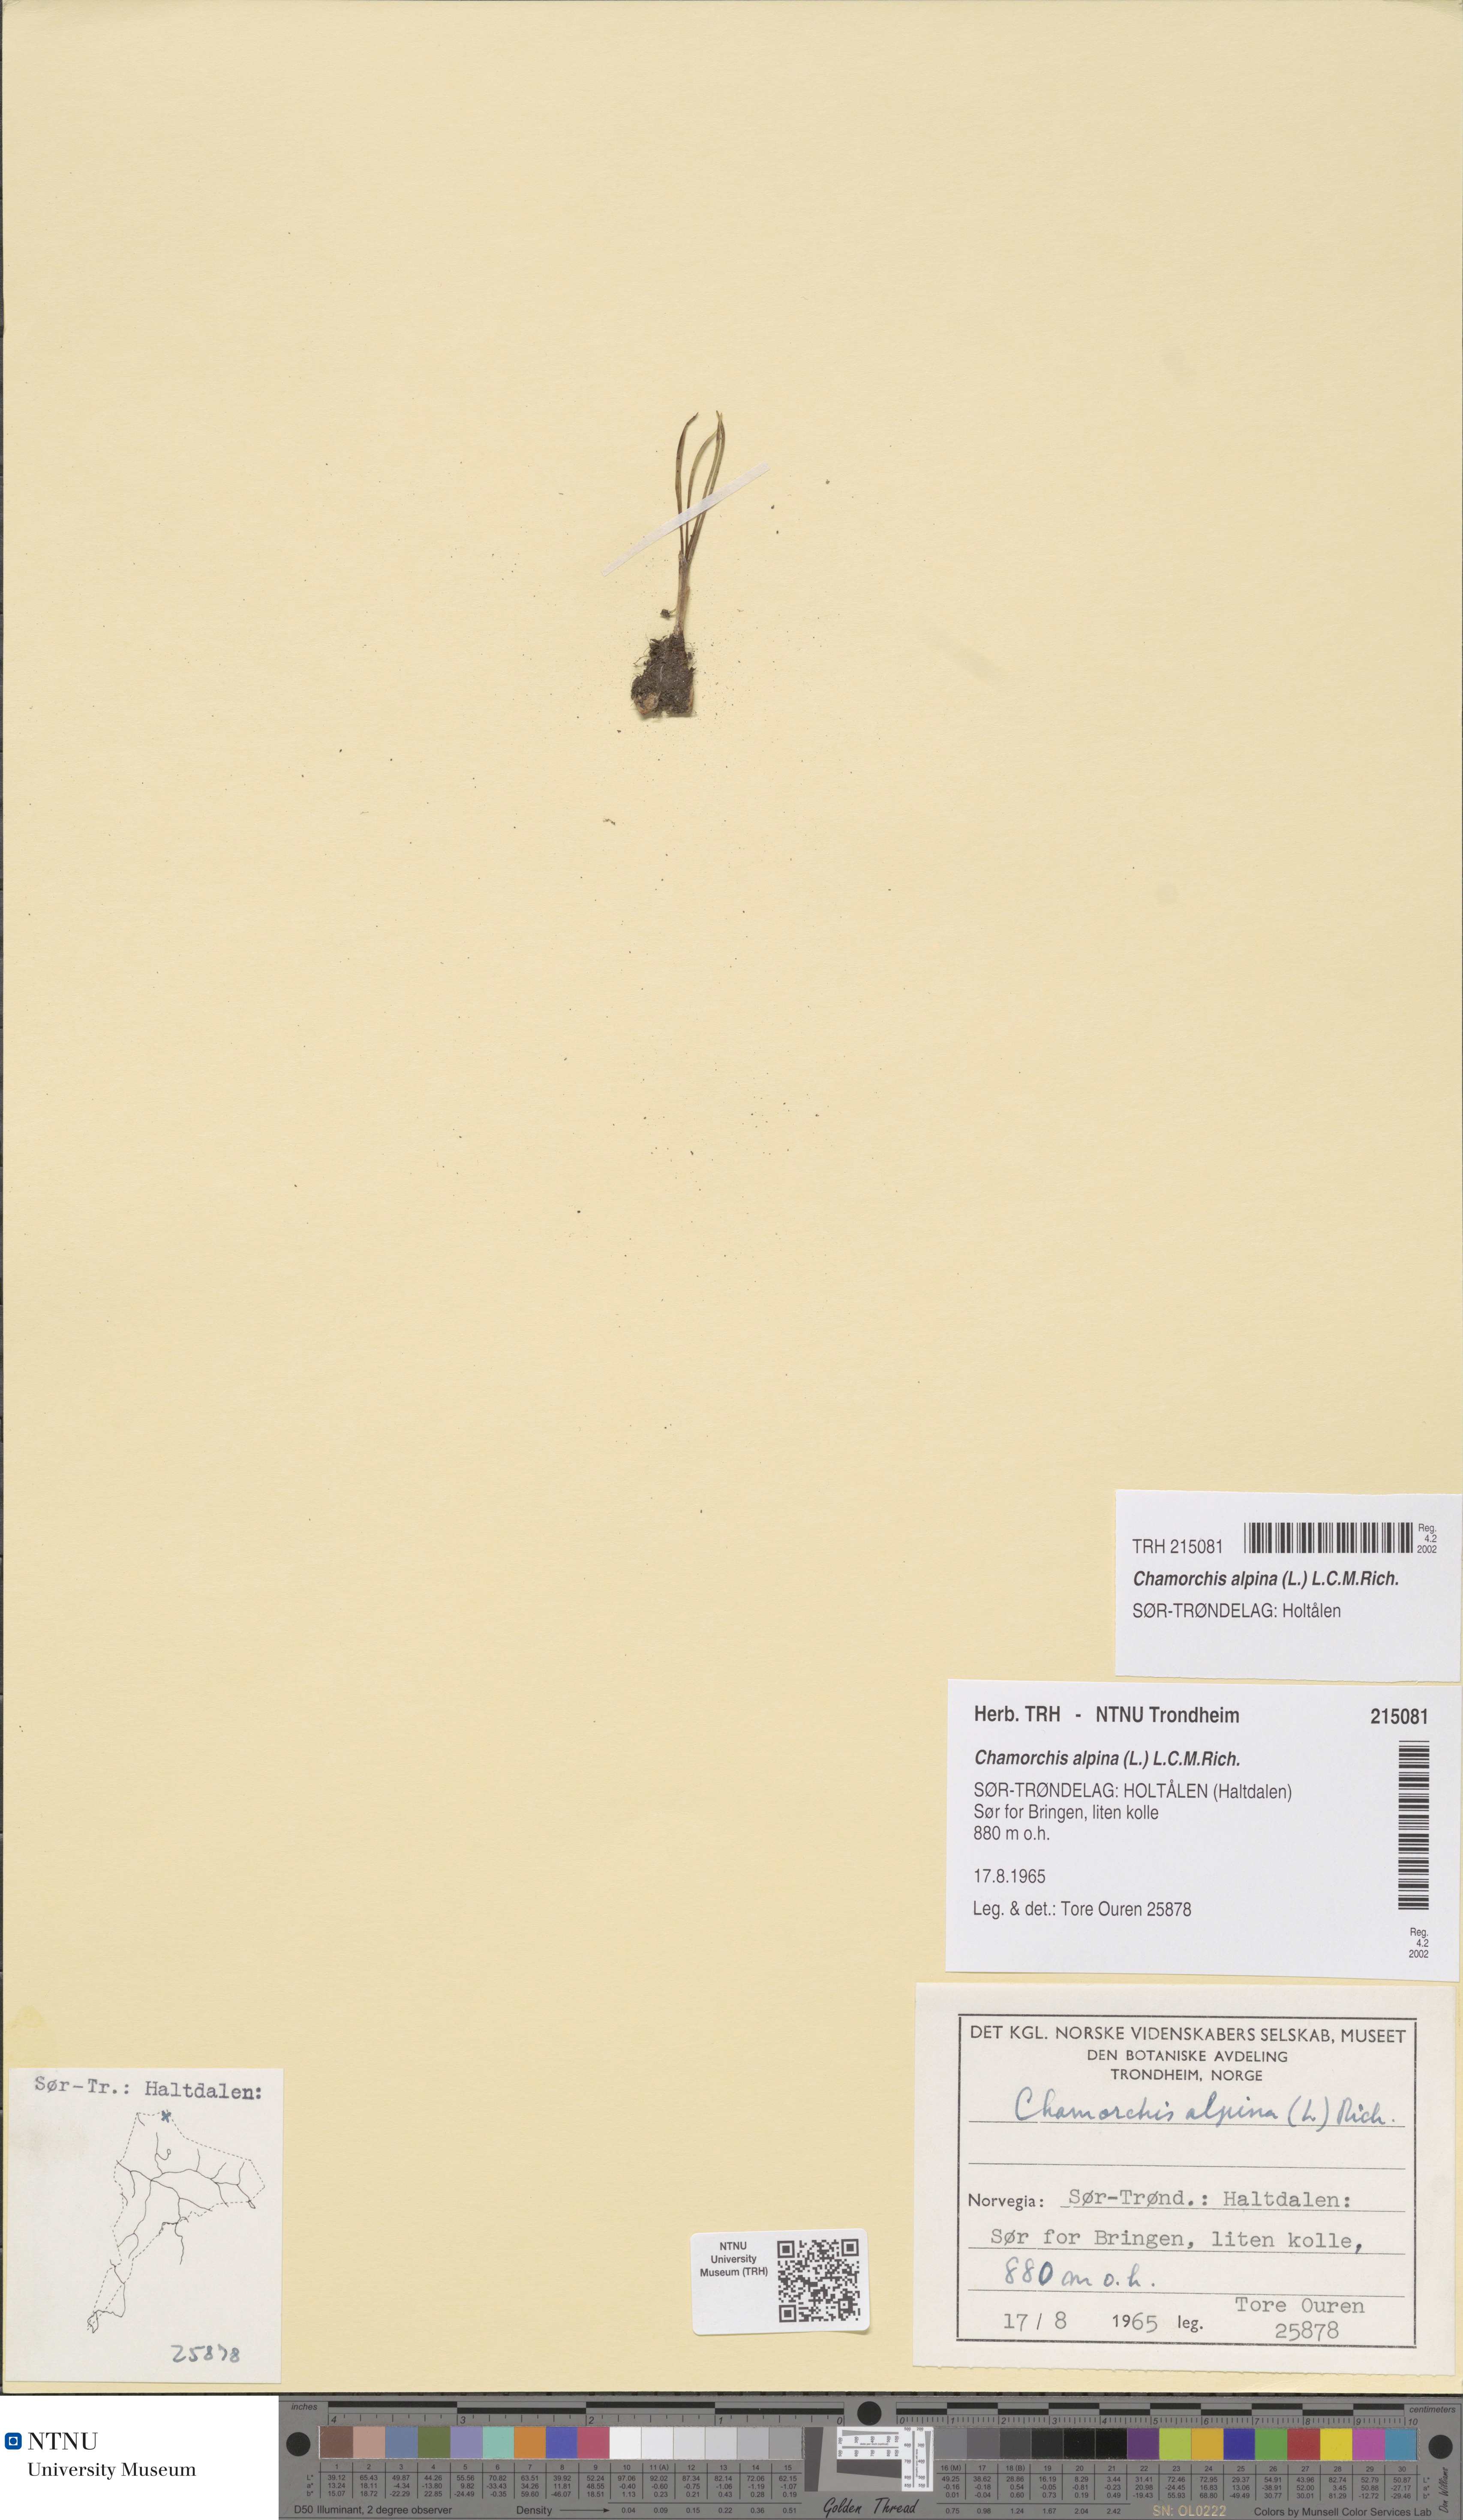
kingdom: Plantae
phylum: Tracheophyta
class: Liliopsida
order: Asparagales
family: Orchidaceae
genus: Chamorchis
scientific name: Chamorchis alpina
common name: Alpine chamorchis
